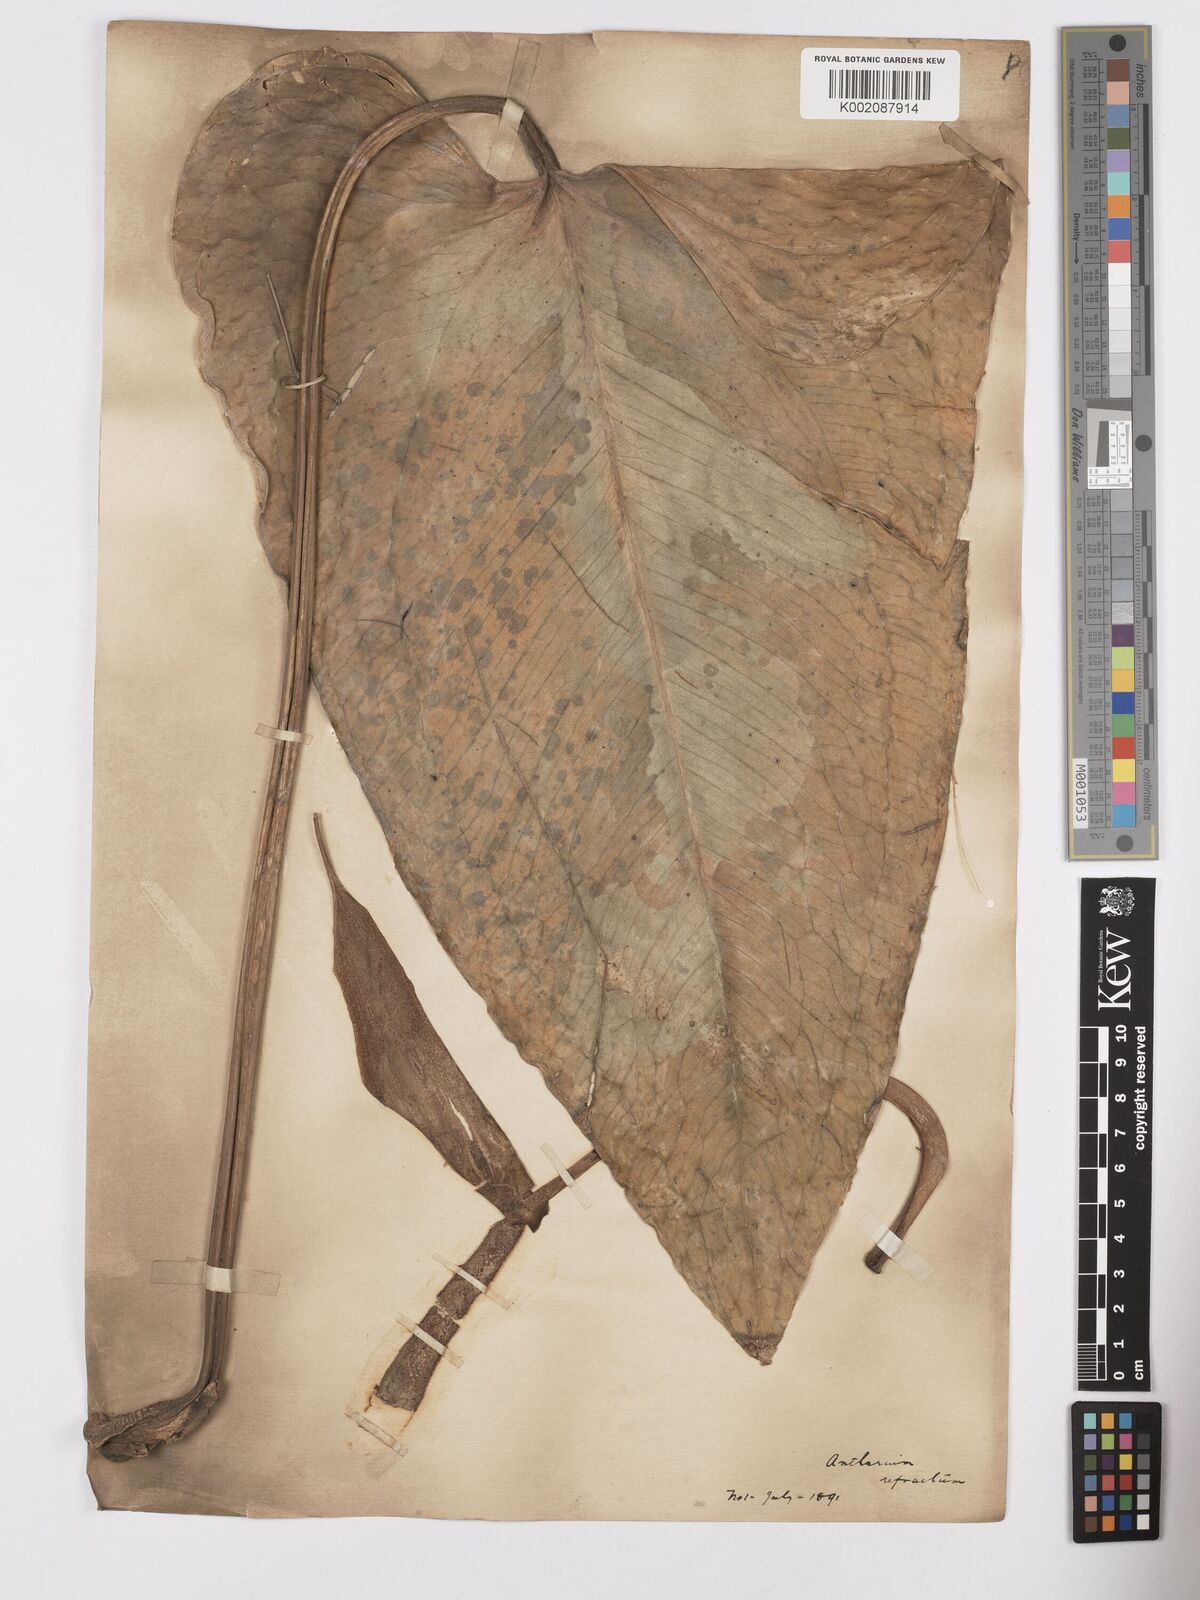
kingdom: Plantae
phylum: Tracheophyta
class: Liliopsida
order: Alismatales
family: Araceae
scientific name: Araceae
